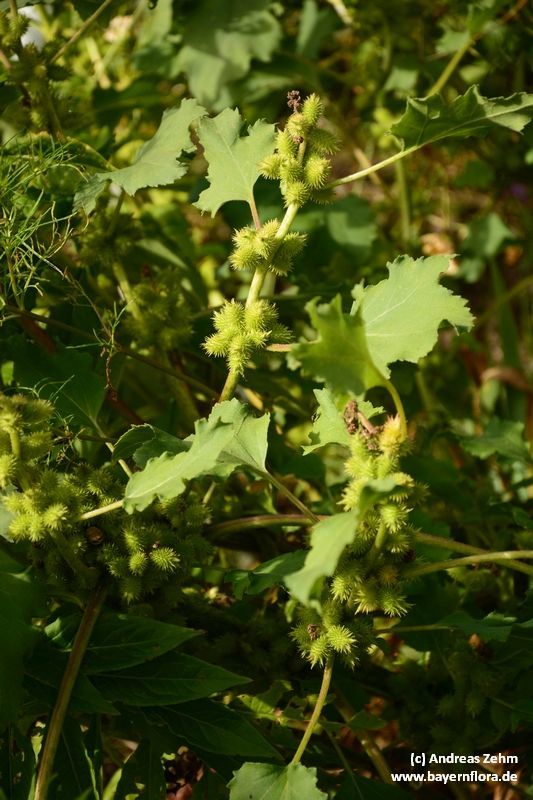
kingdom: Plantae
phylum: Tracheophyta
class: Magnoliopsida
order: Asterales
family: Asteraceae
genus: Xanthium
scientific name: Xanthium strumarium
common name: Rough cocklebur
